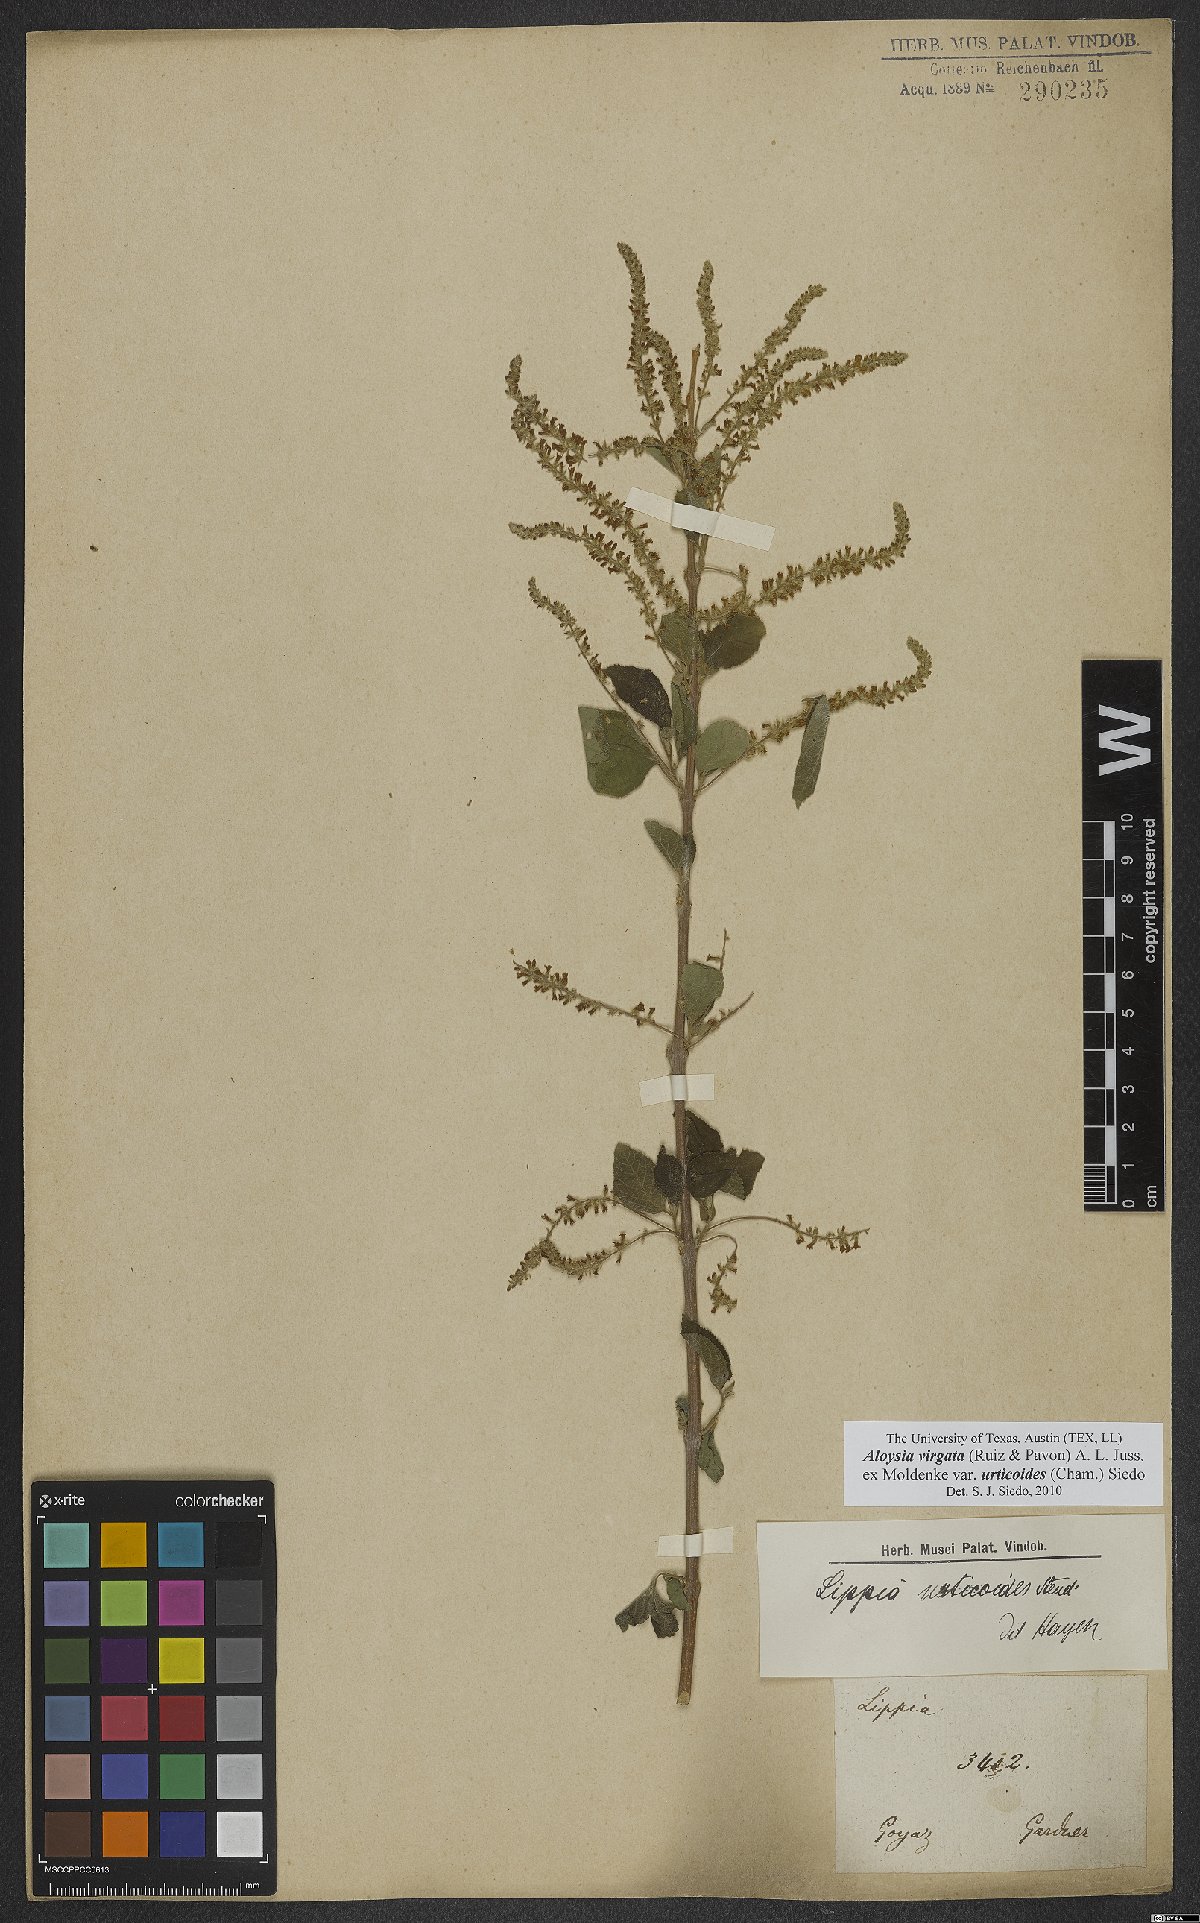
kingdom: Plantae
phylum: Tracheophyta
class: Magnoliopsida
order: Lamiales
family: Verbenaceae
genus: Aloysia
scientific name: Aloysia virgata
